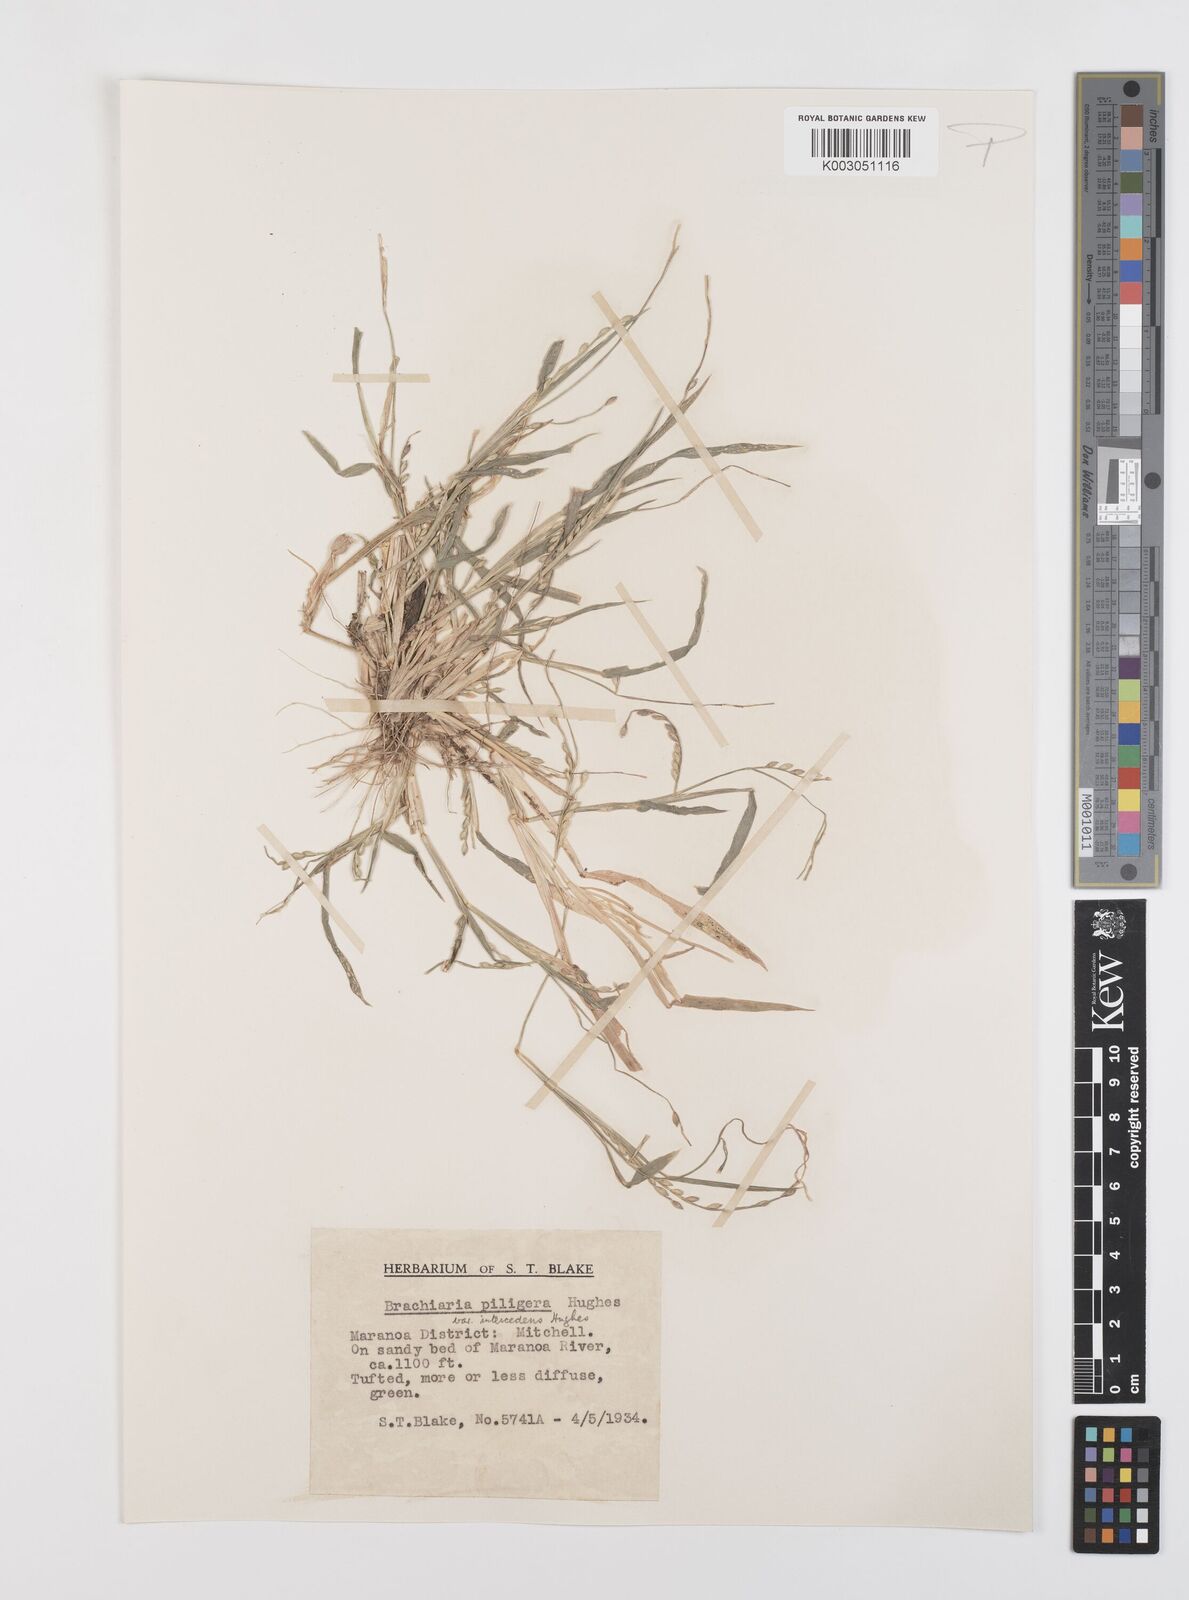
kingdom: Plantae
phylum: Tracheophyta
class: Liliopsida
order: Poales
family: Poaceae
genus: Urochloa
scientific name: Urochloa piligera
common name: Wattle signalgrass
